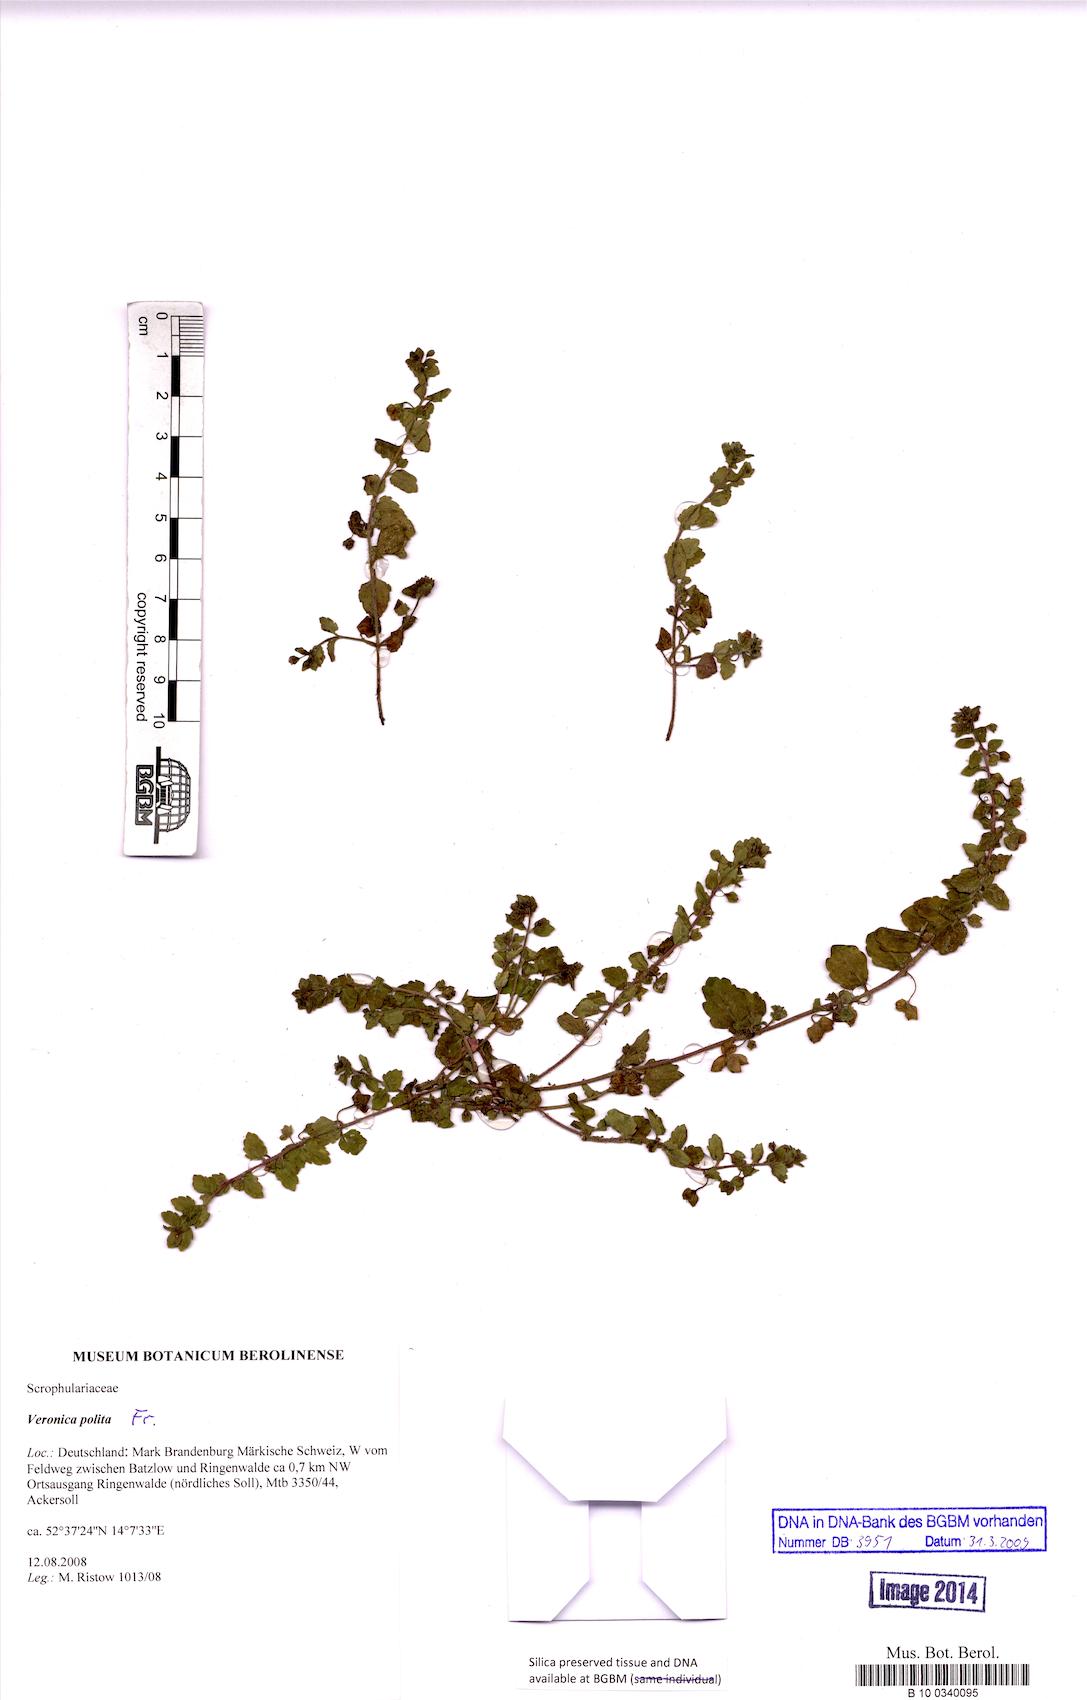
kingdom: Plantae
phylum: Tracheophyta
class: Magnoliopsida
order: Lamiales
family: Plantaginaceae
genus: Veronica
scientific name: Veronica polita
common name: Grey field-speedwell
